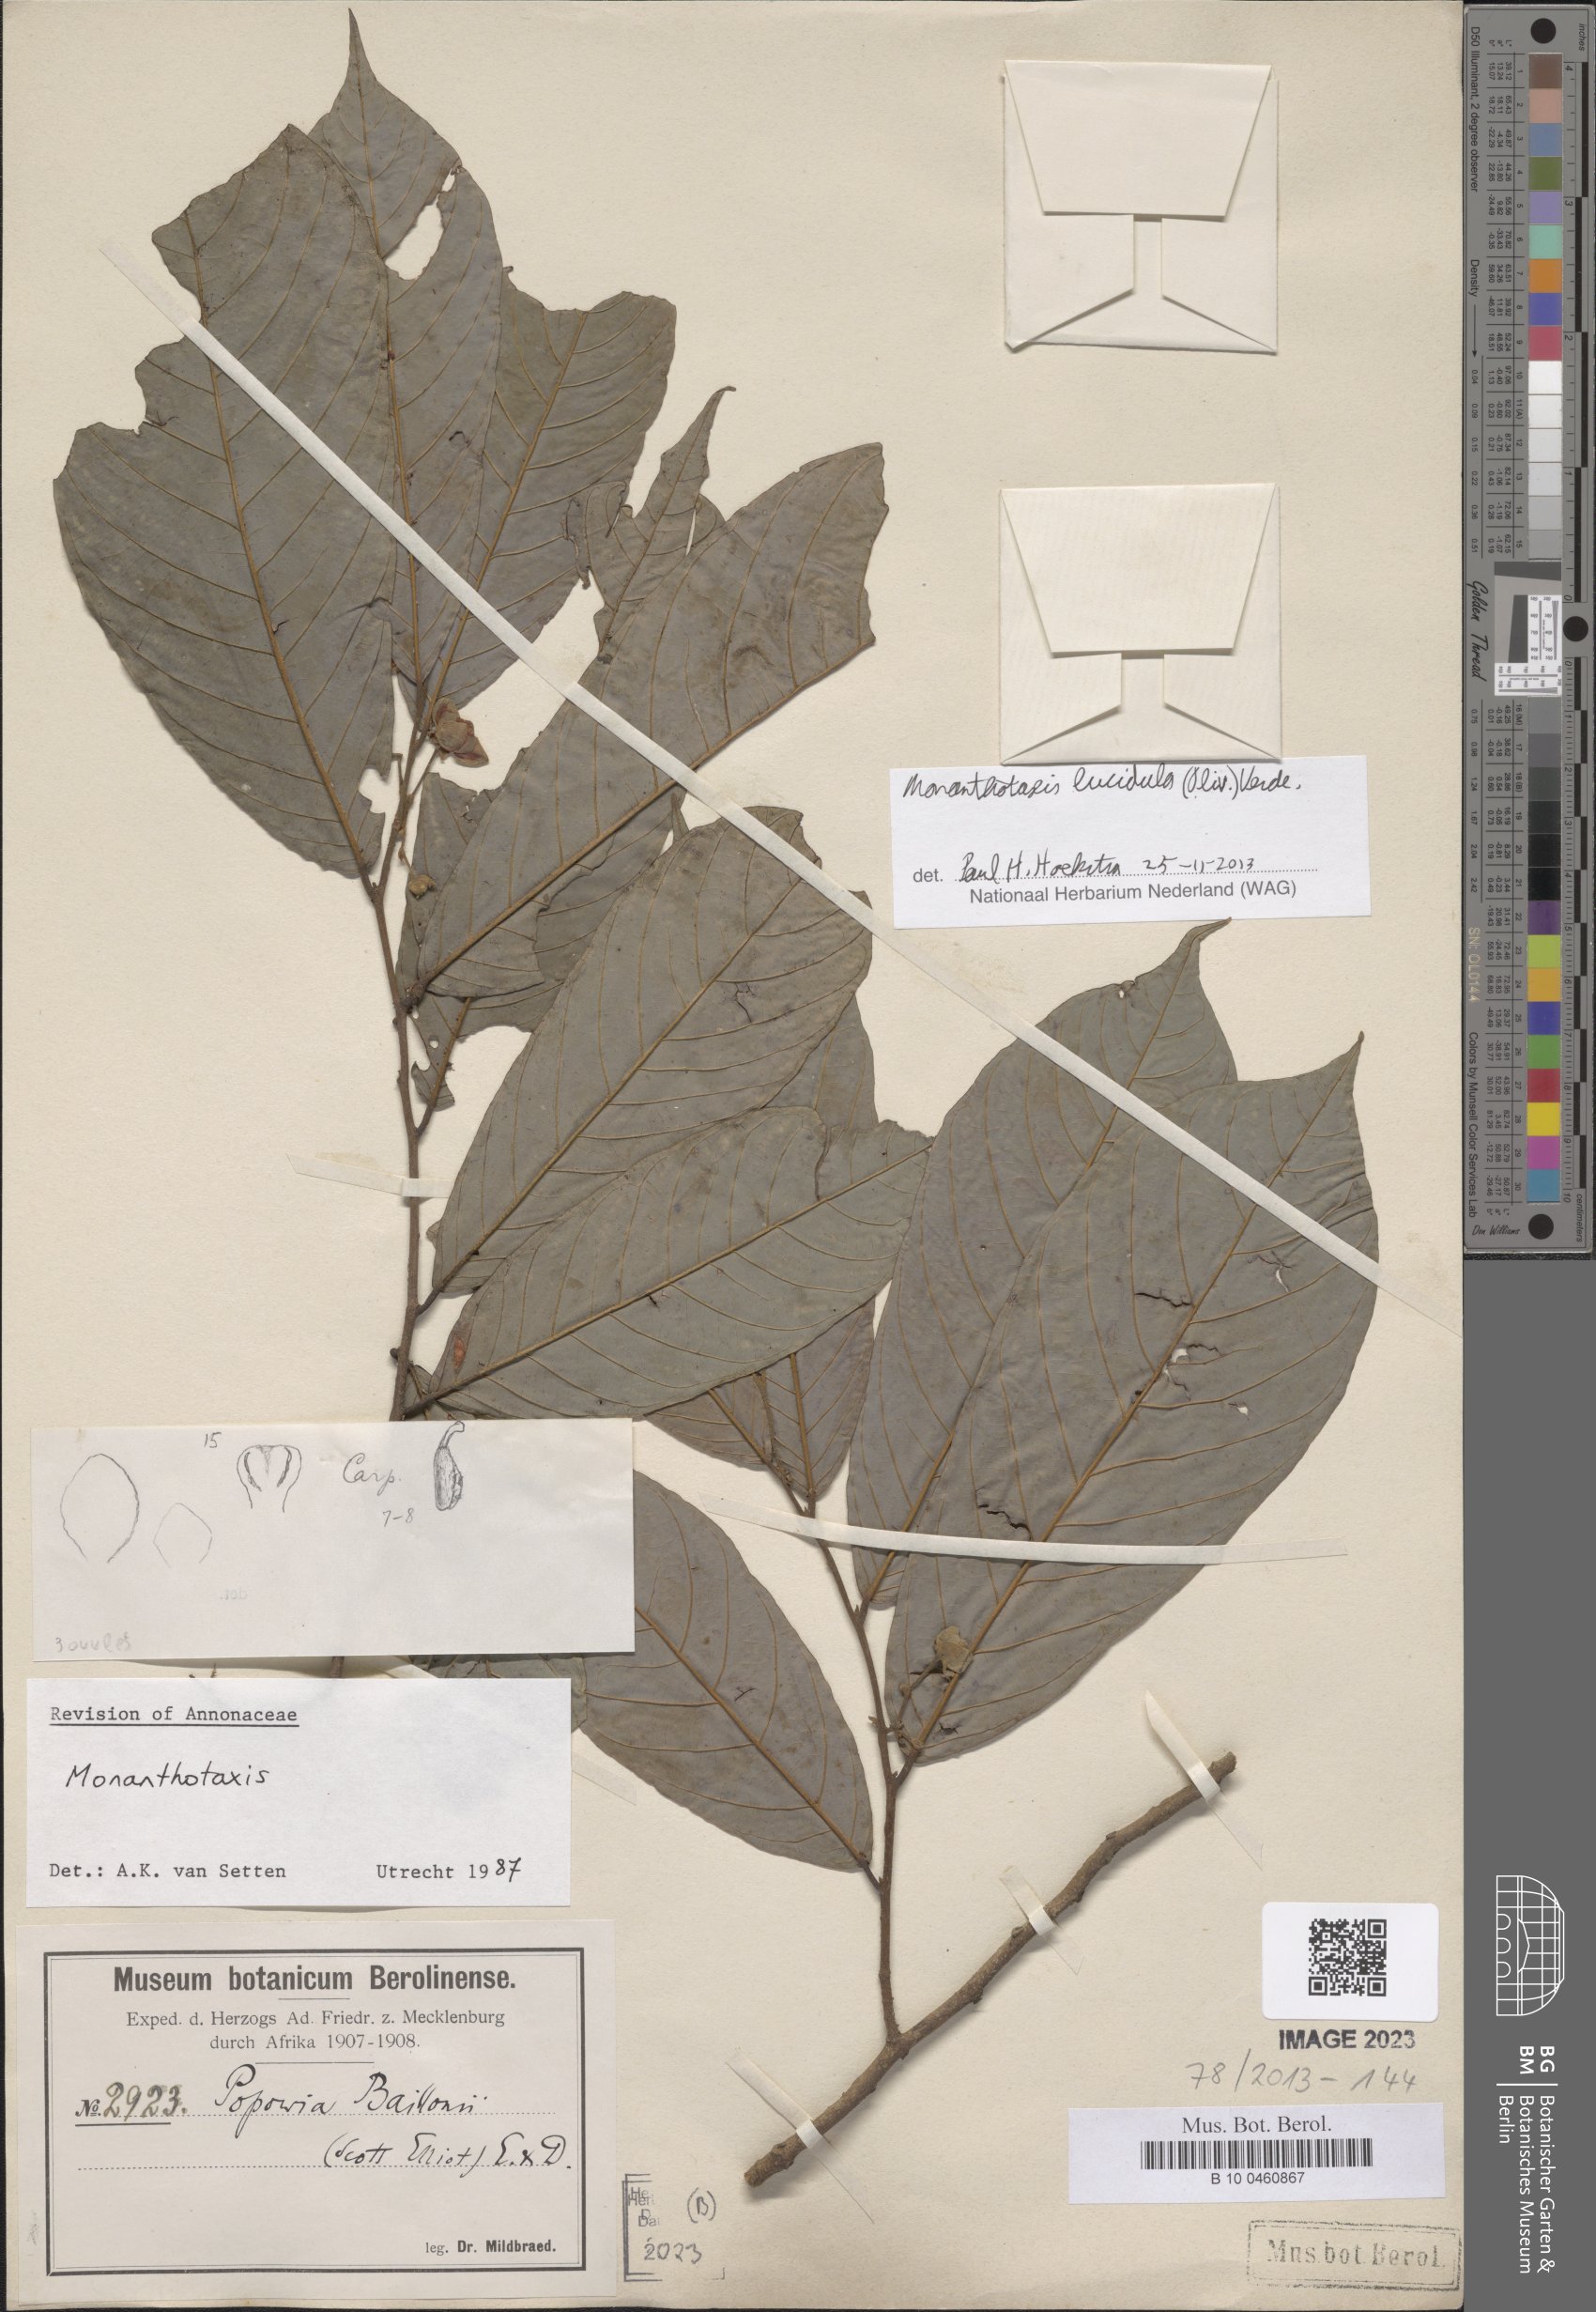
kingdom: Plantae
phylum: Tracheophyta
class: Magnoliopsida
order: Magnoliales
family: Annonaceae
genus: Monanthotaxis
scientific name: Monanthotaxis lucidula
